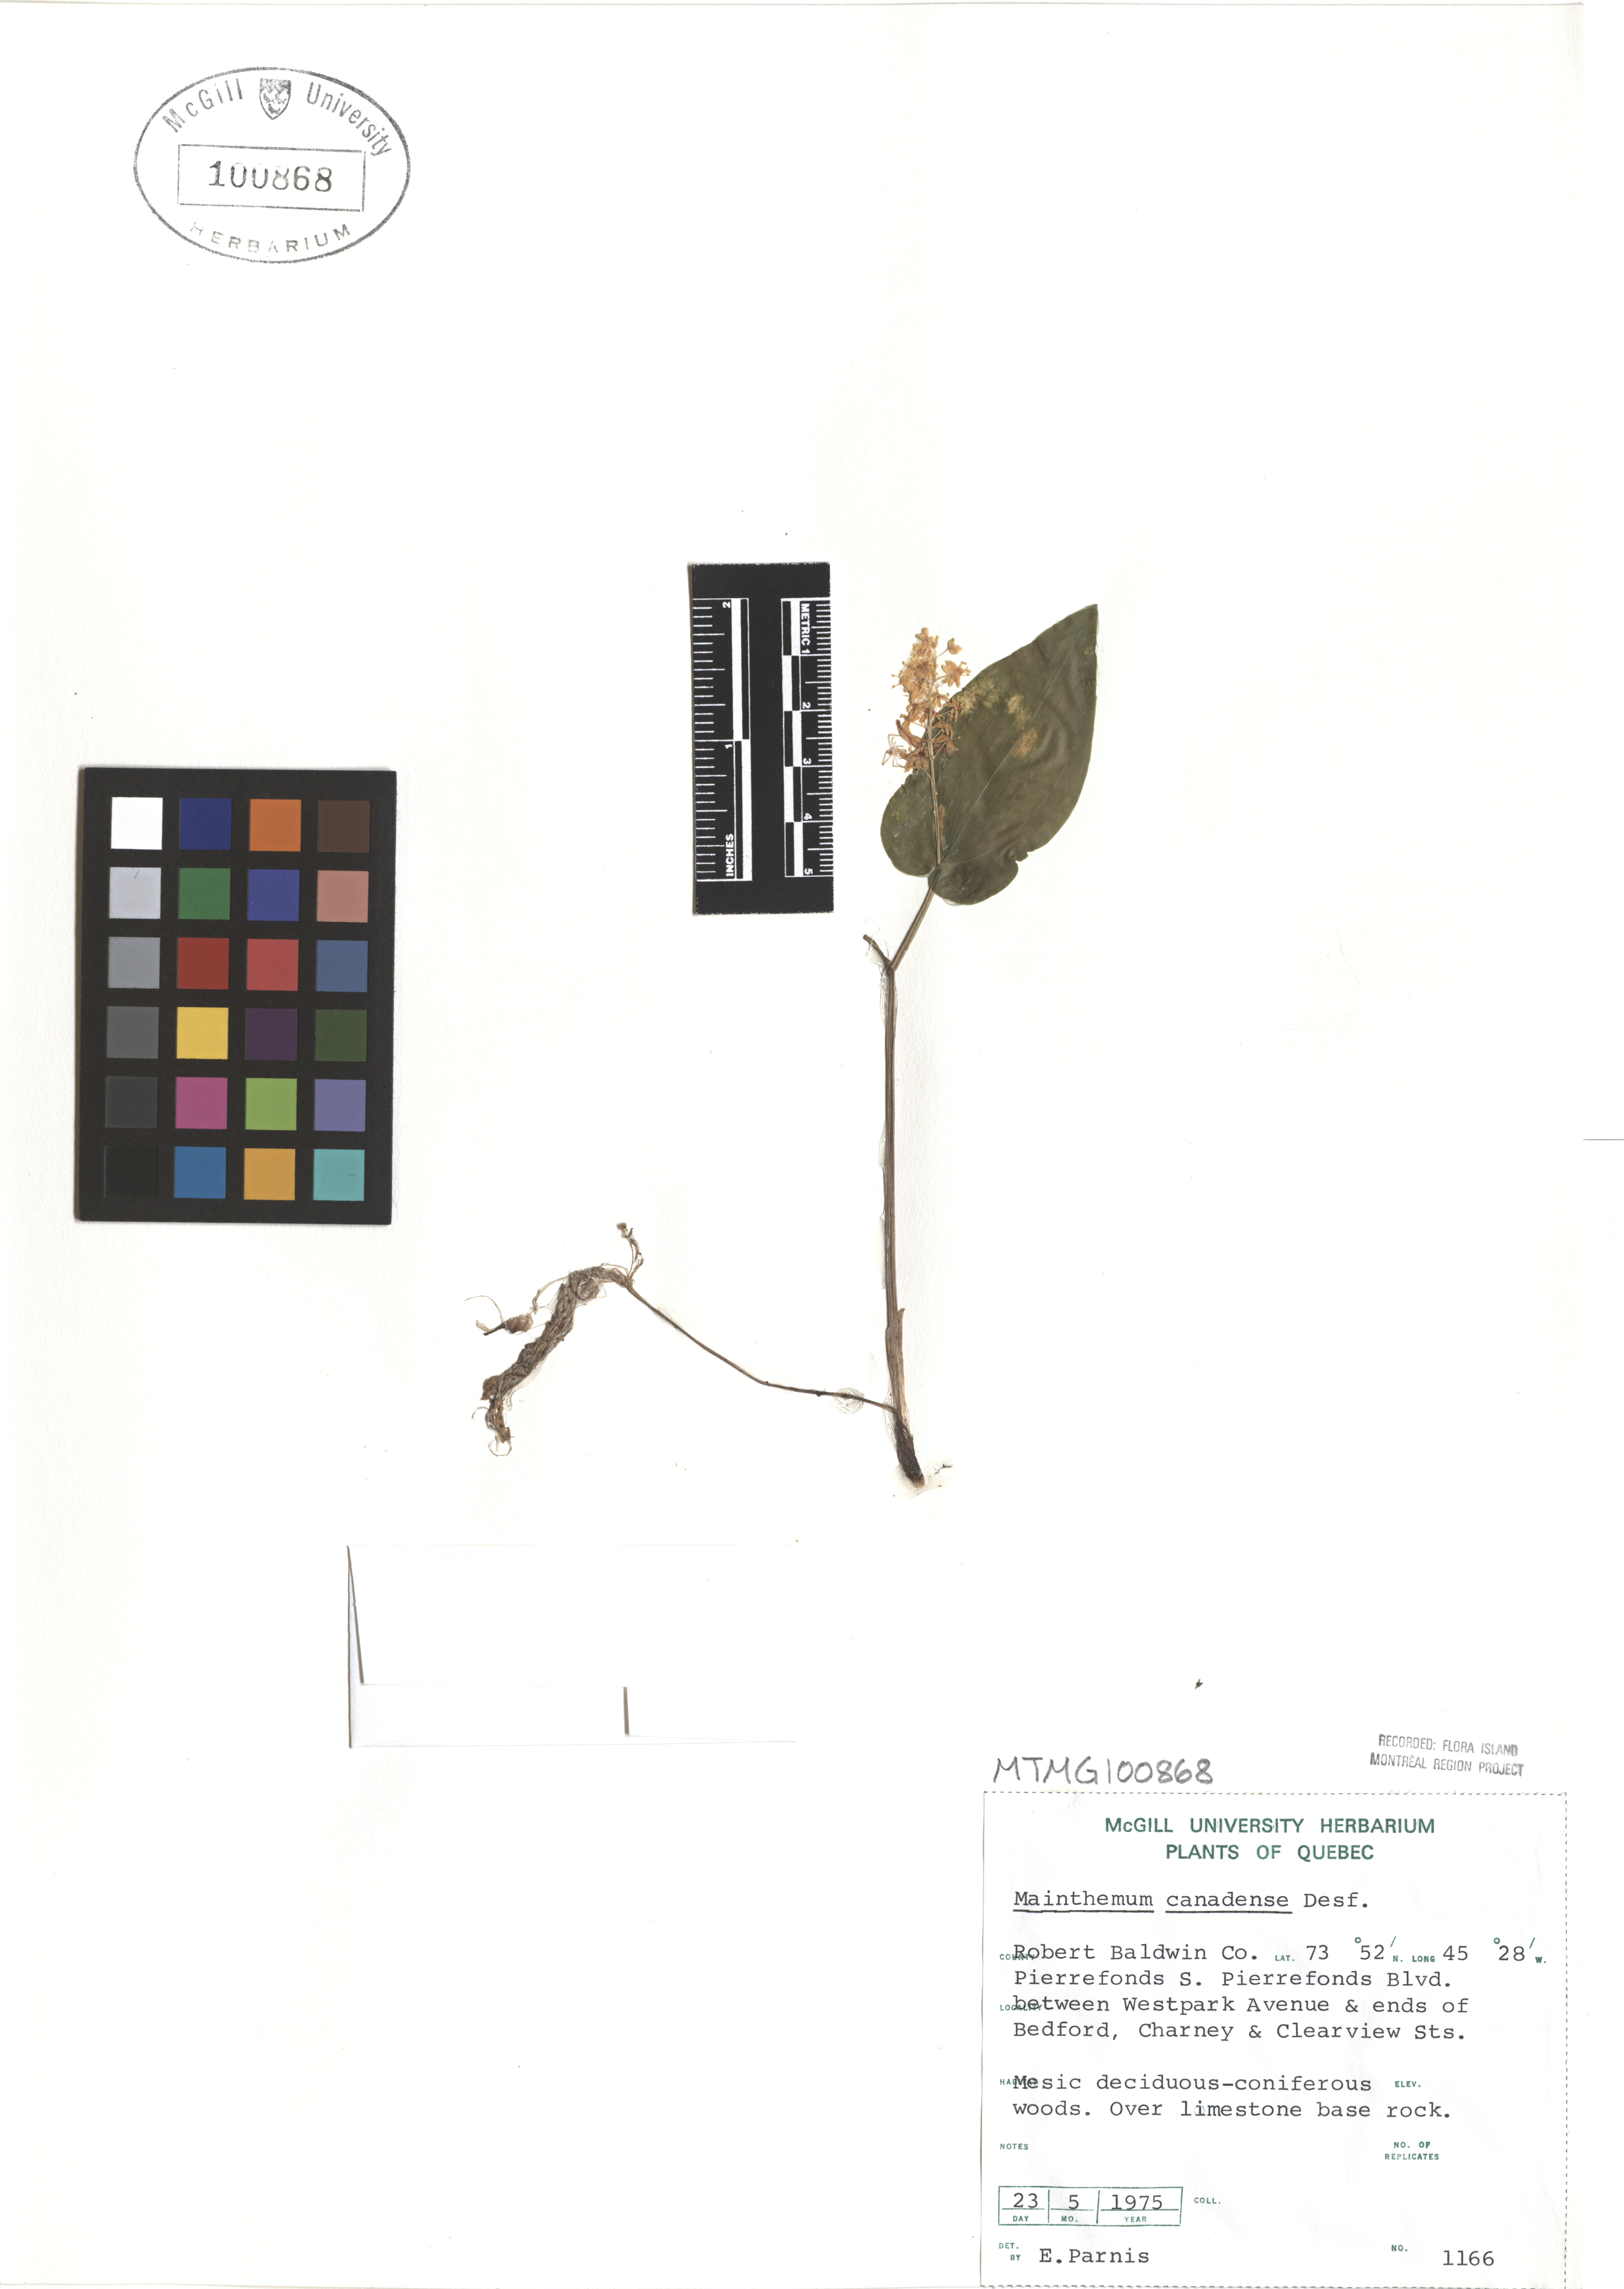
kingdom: Plantae
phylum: Tracheophyta
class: Liliopsida
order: Asparagales
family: Asparagaceae
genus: Maianthemum
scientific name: Maianthemum canadense
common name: False lily-of-the-valley
